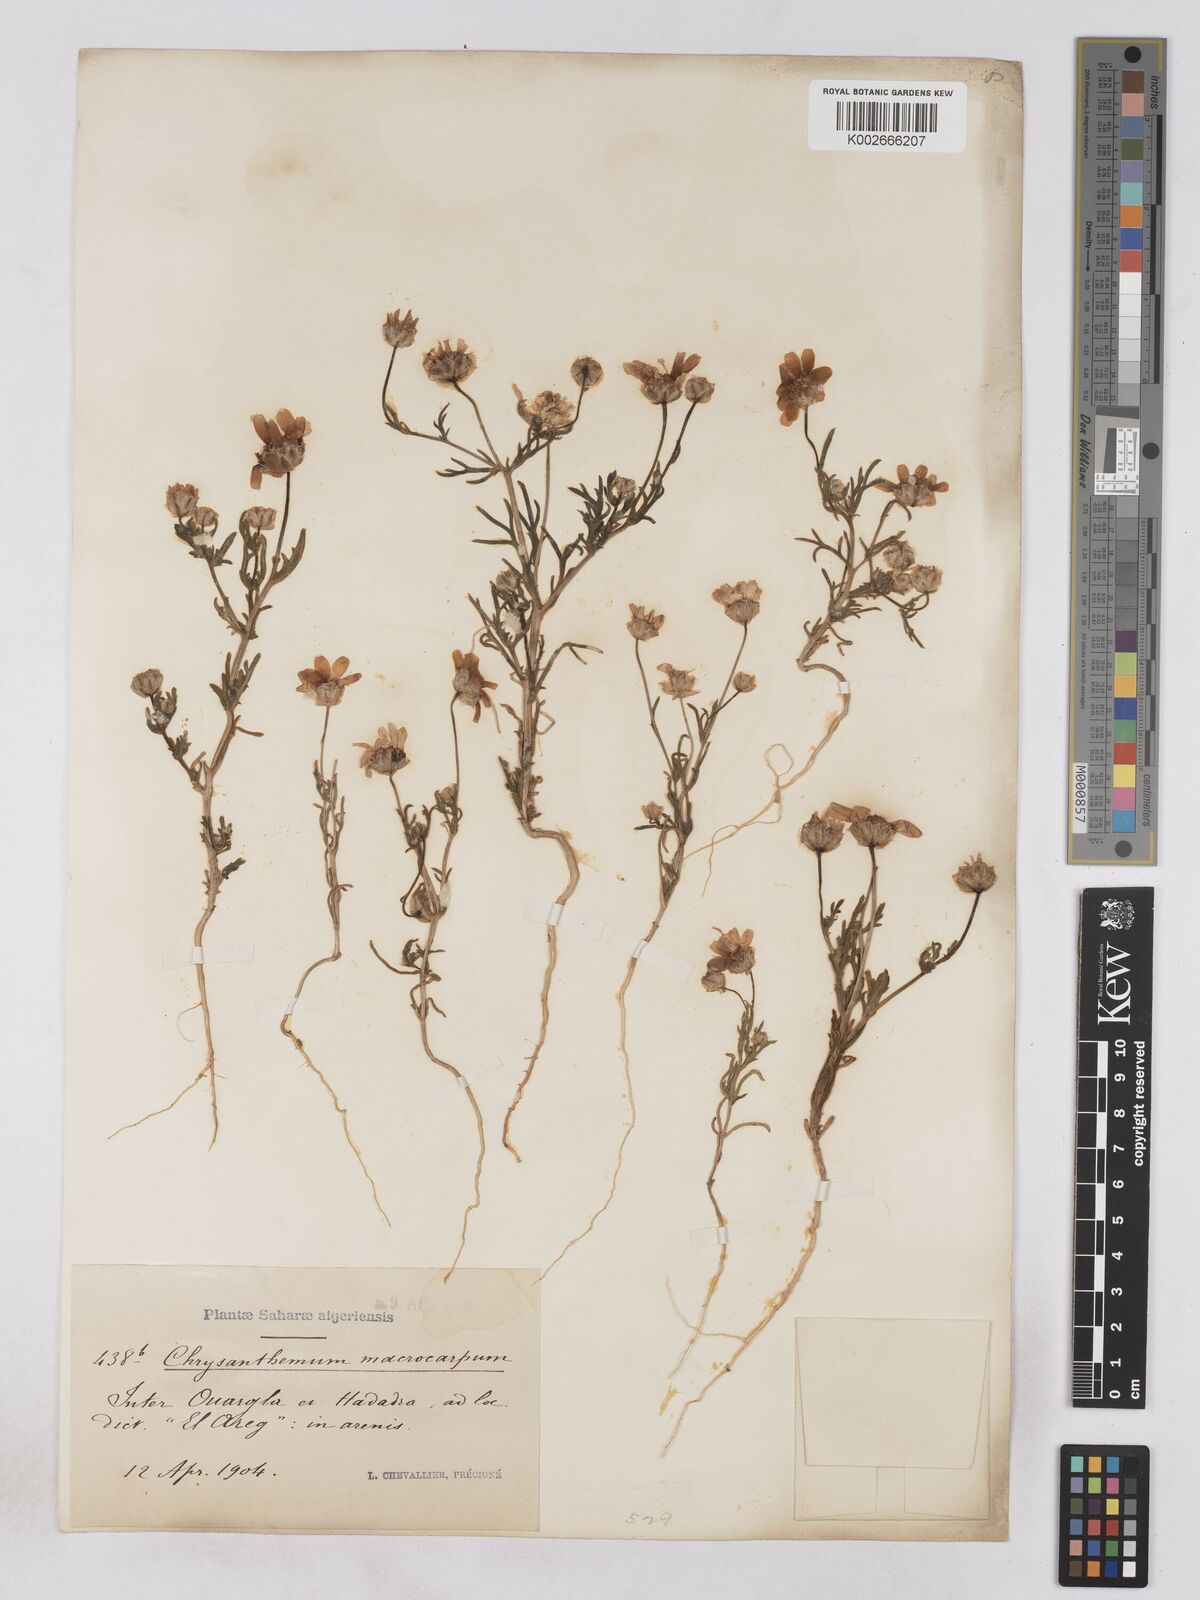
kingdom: Plantae
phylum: Tracheophyta
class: Magnoliopsida
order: Asterales
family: Asteraceae
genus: Endopappus
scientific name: Endopappus
